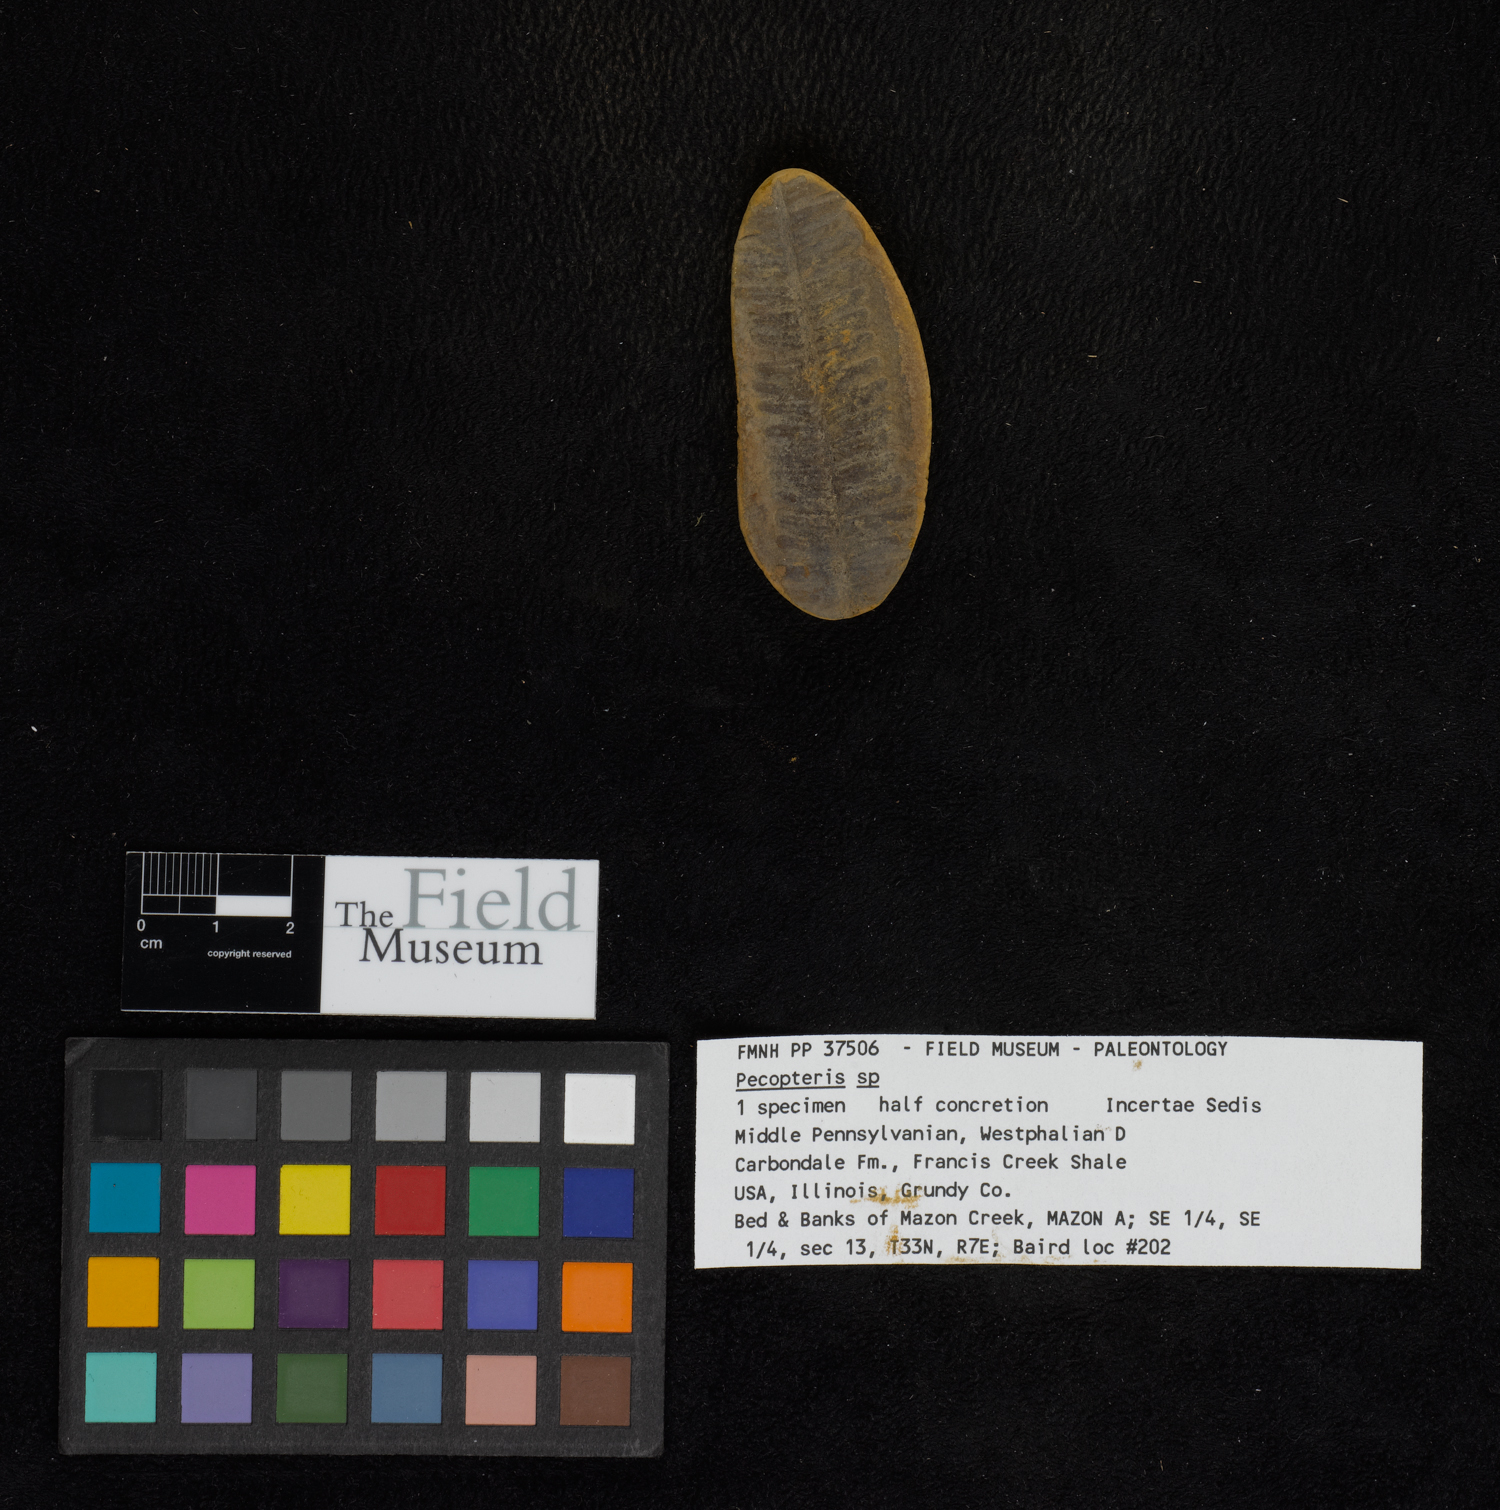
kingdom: Plantae
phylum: Tracheophyta
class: Polypodiopsida
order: Marattiales
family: Asterothecaceae
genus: Pecopteris
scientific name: Pecopteris
